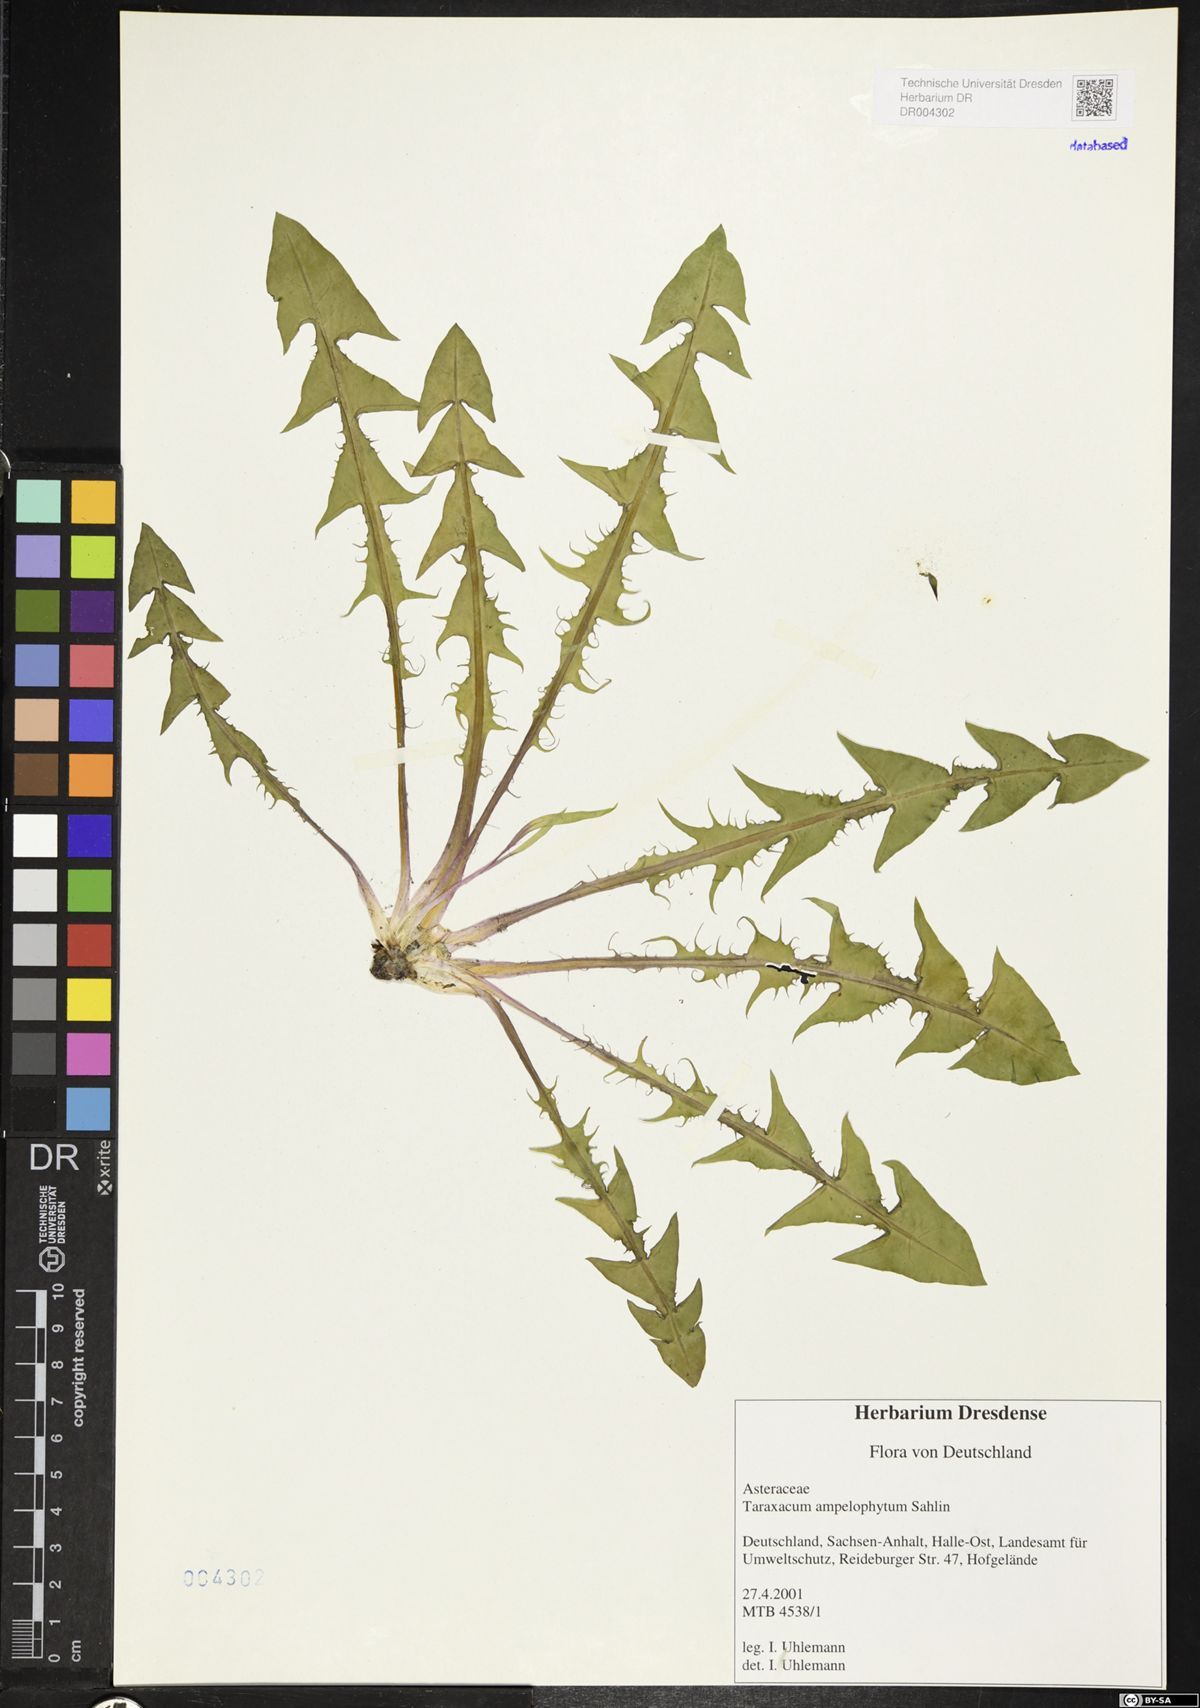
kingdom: Plantae
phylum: Tracheophyta
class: Magnoliopsida
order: Asterales
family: Asteraceae
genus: Taraxacum
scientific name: Taraxacum debrayi
